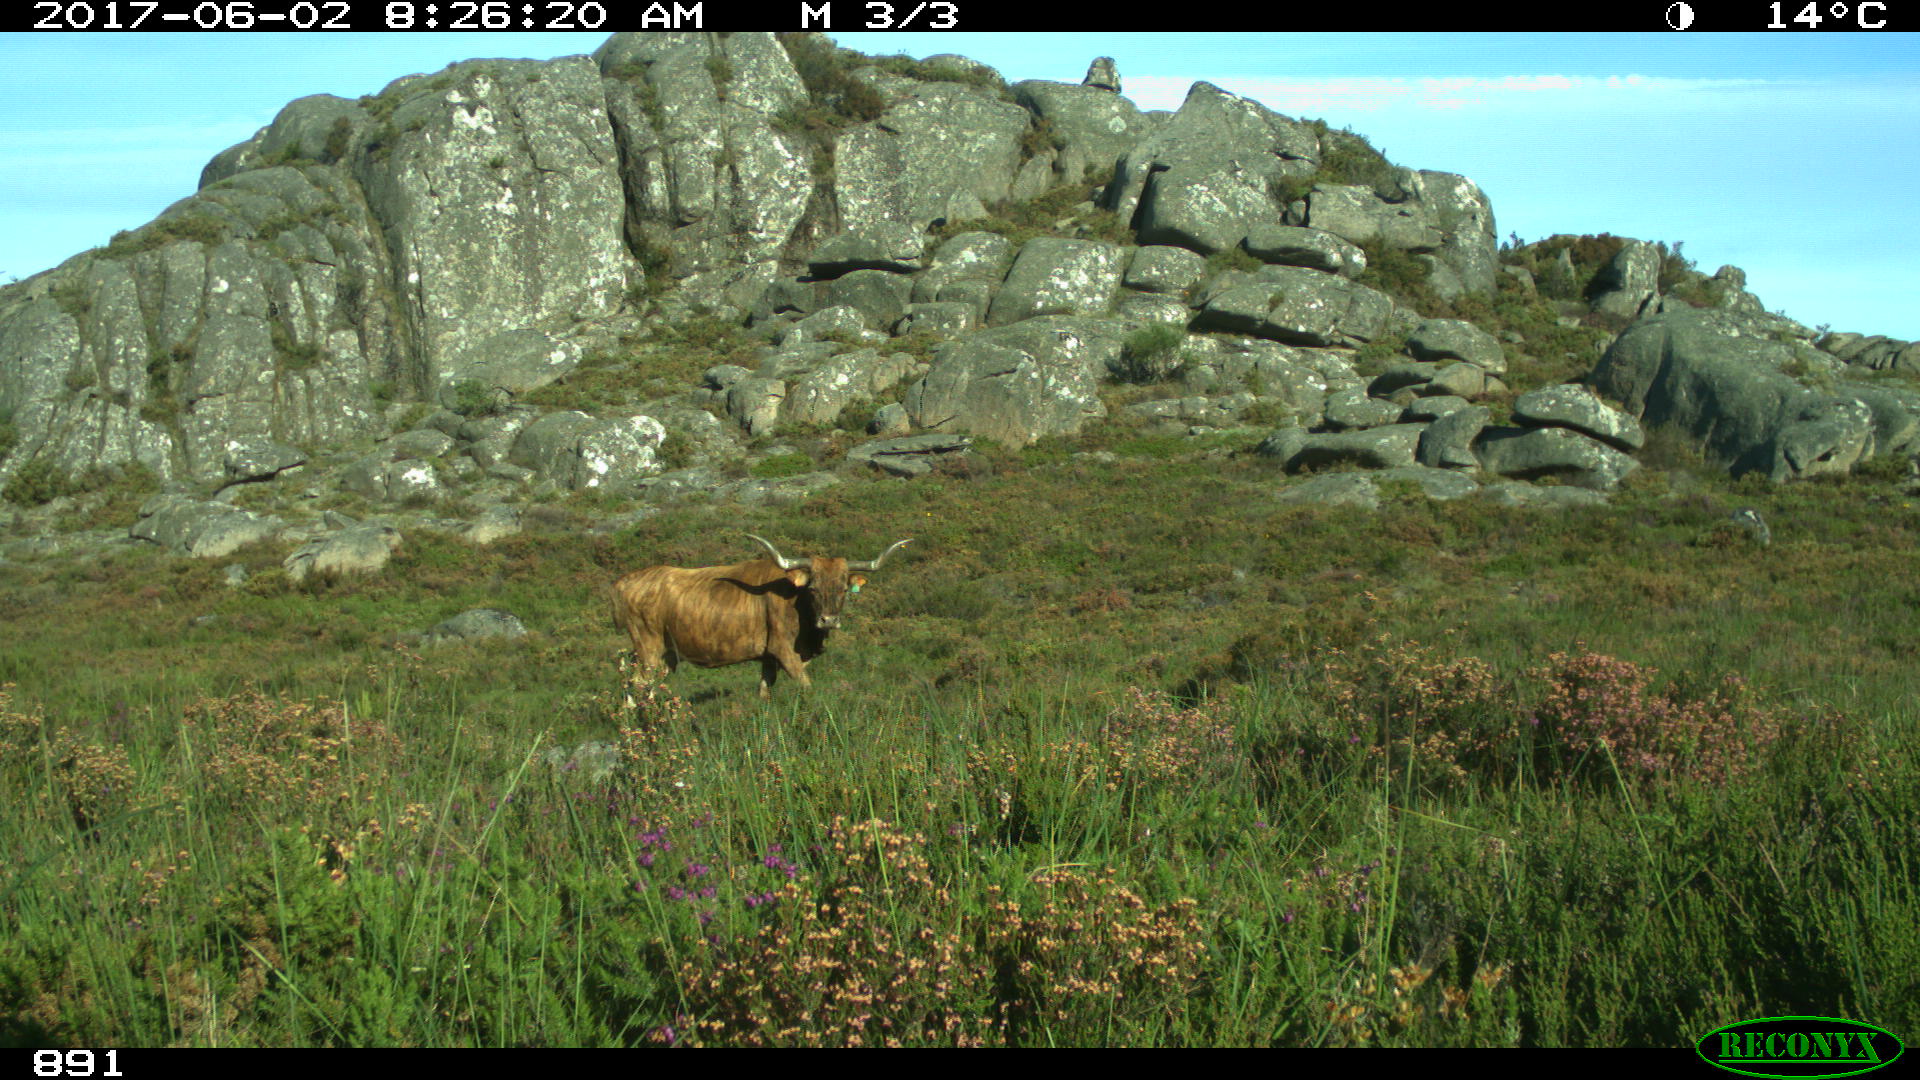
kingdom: Animalia
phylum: Chordata
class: Mammalia
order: Artiodactyla
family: Bovidae
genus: Bos
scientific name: Bos taurus
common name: Domesticated cattle
